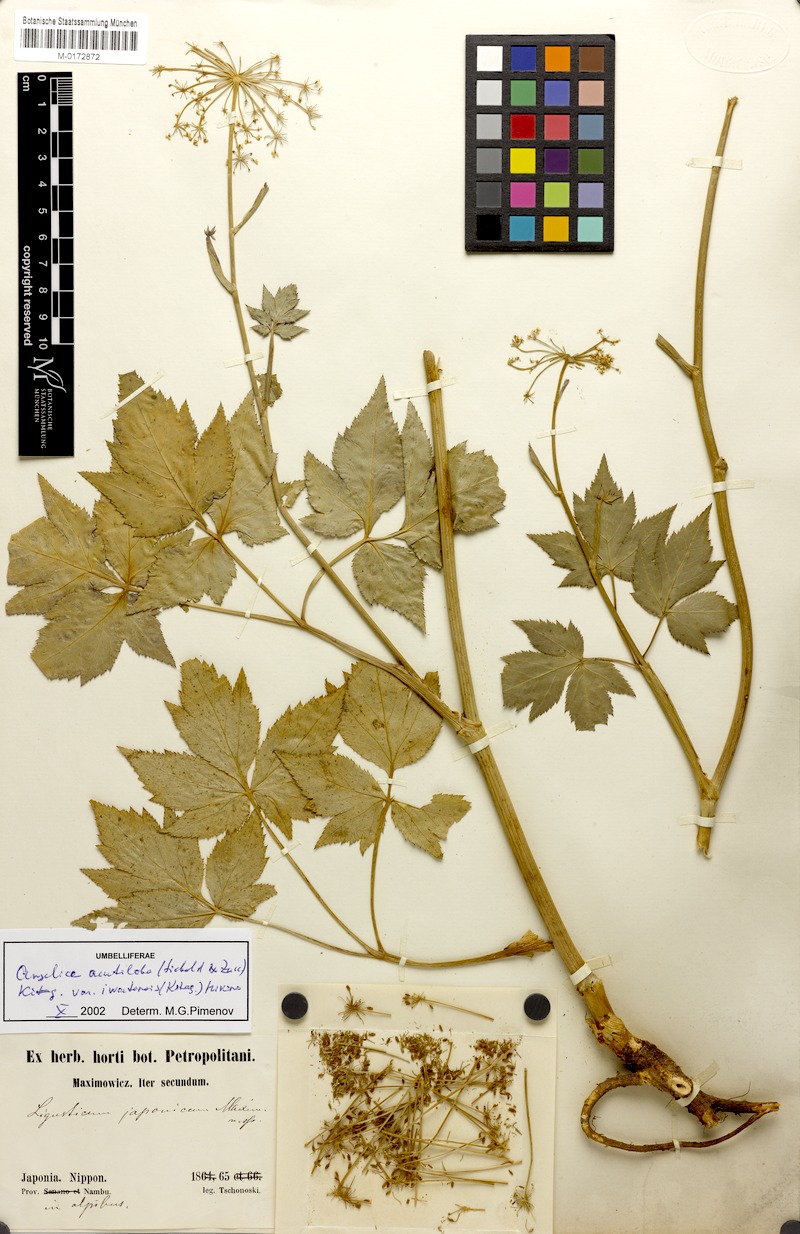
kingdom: Plantae
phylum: Tracheophyta
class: Magnoliopsida
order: Apiales
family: Apiaceae
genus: Angelica
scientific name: Angelica acutiloba
